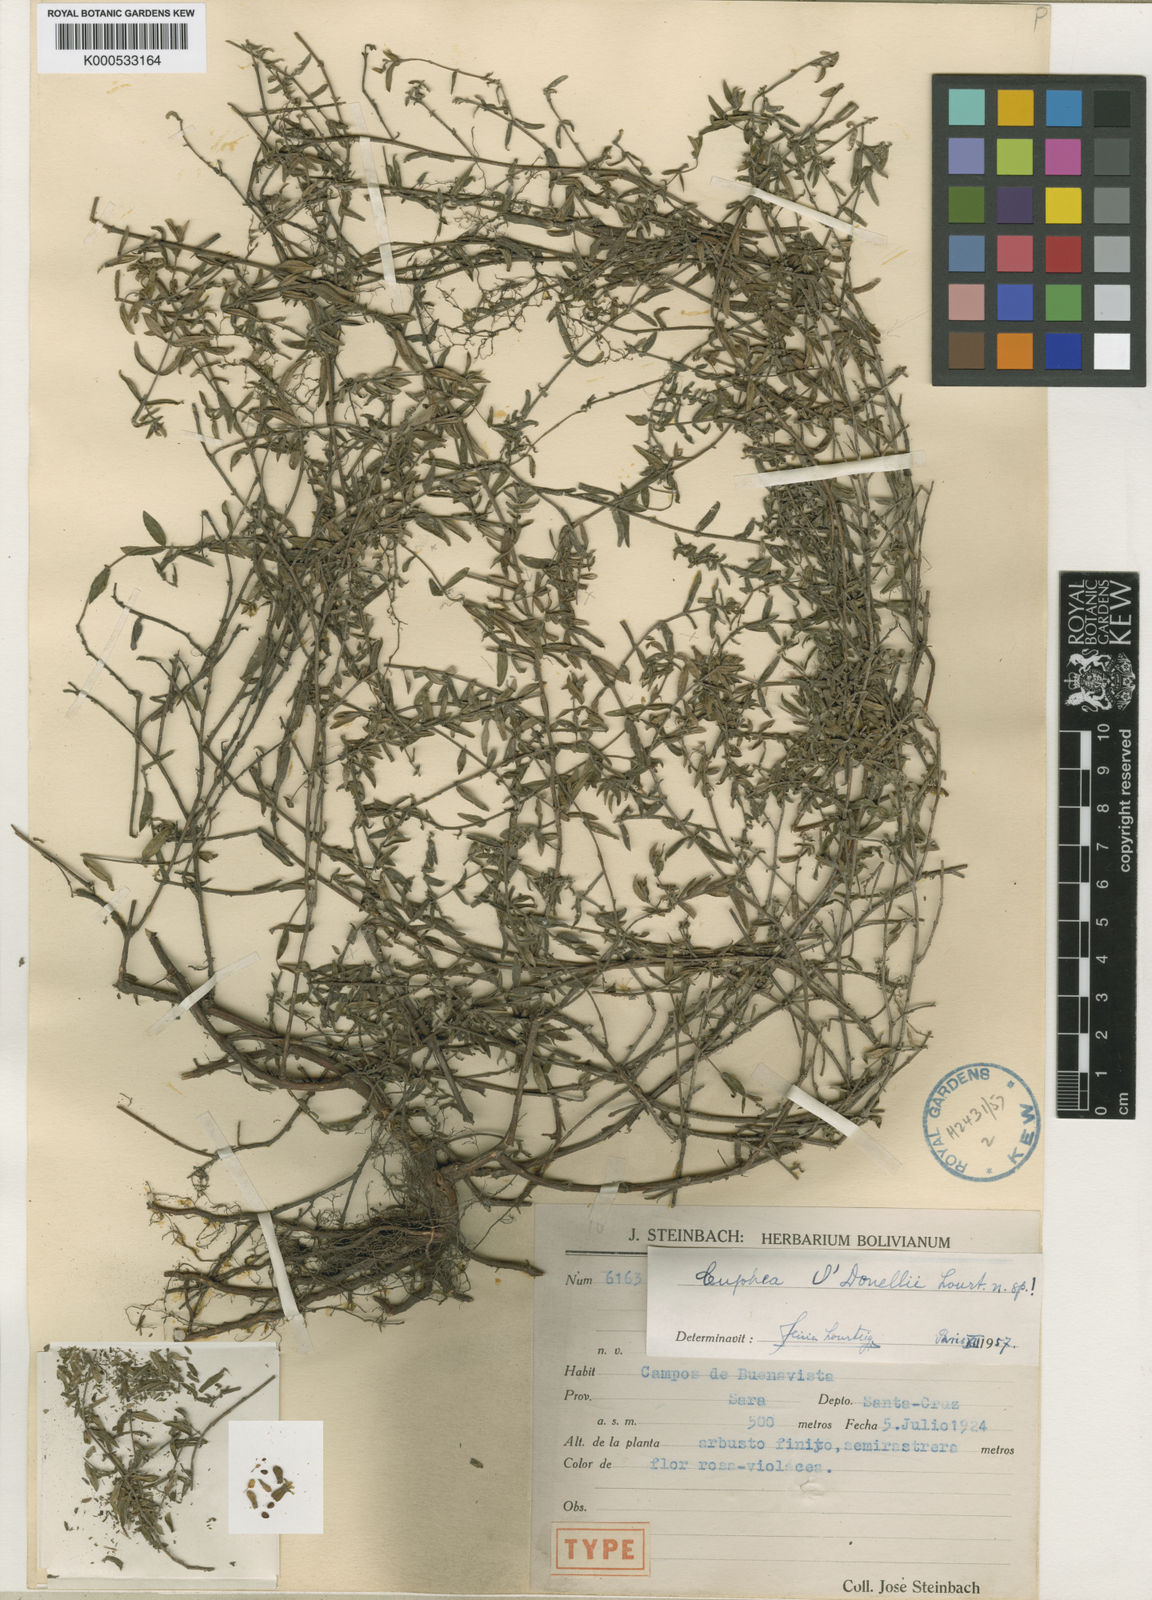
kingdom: Plantae
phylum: Tracheophyta
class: Magnoliopsida
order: Myrtales
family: Lythraceae
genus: Cuphea
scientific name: Cuphea odonellii
